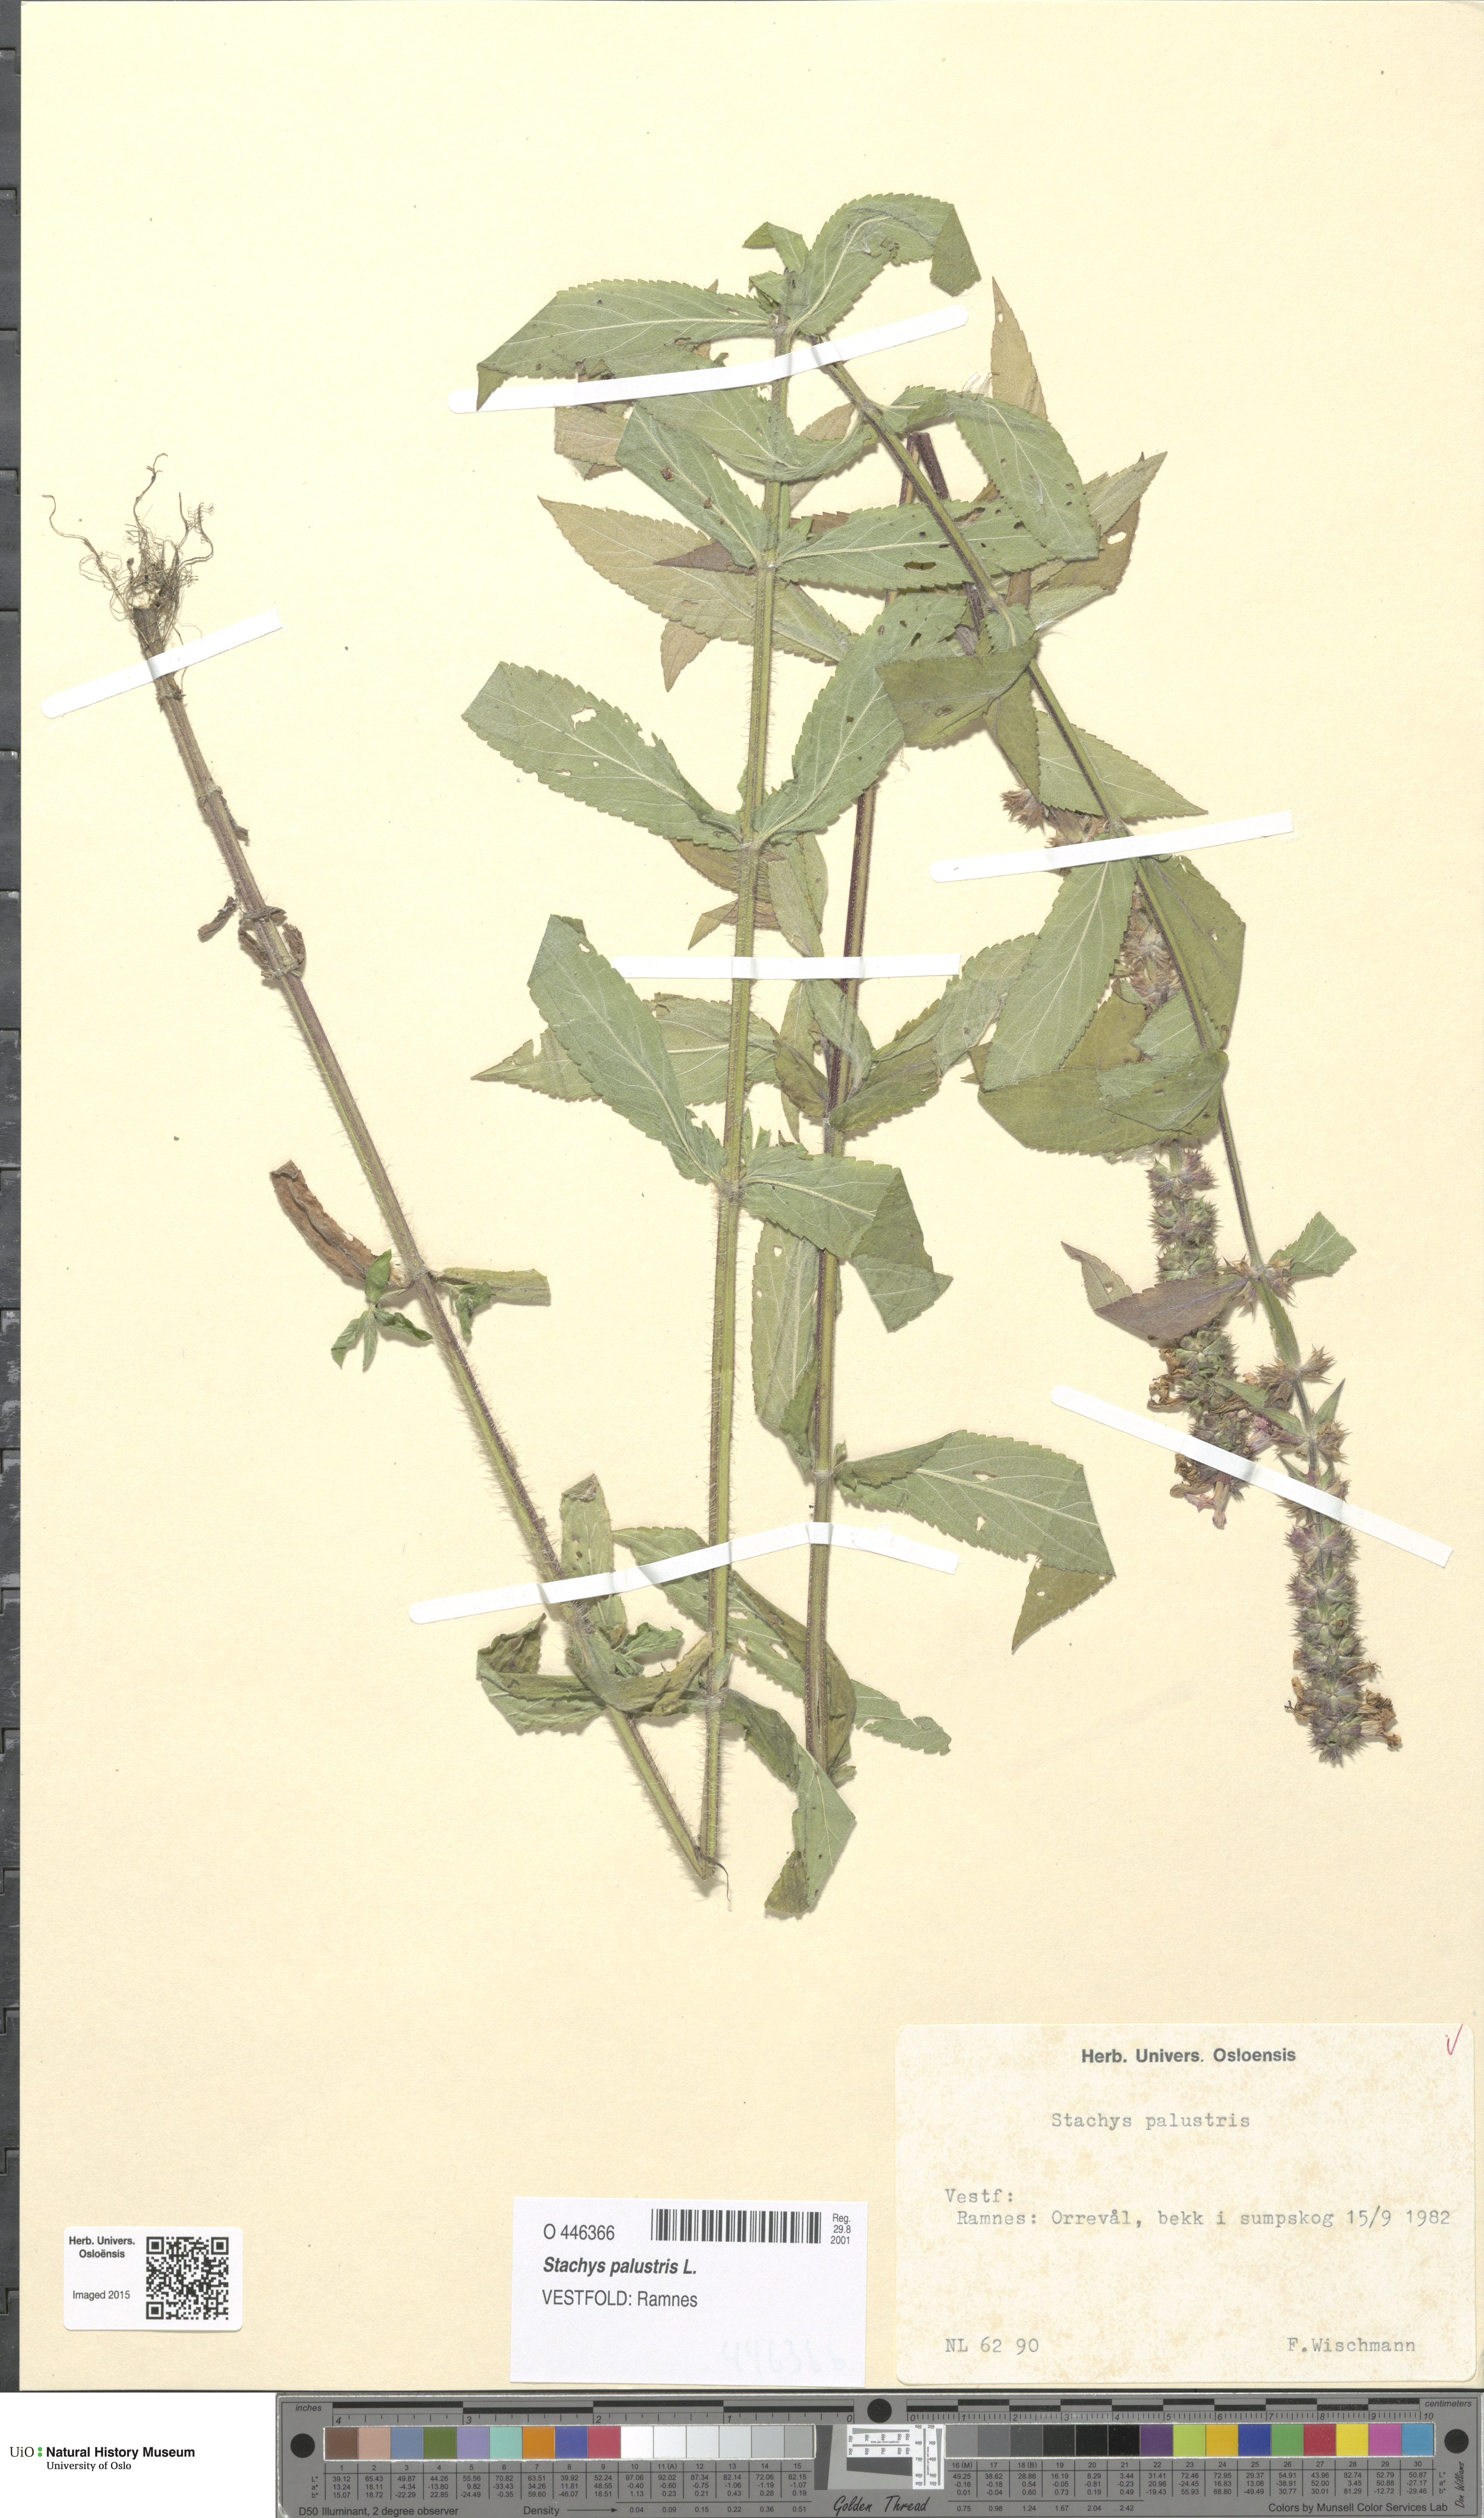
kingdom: Plantae
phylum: Tracheophyta
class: Magnoliopsida
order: Lamiales
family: Lamiaceae
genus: Stachys
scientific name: Stachys palustris
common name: Marsh woundwort
